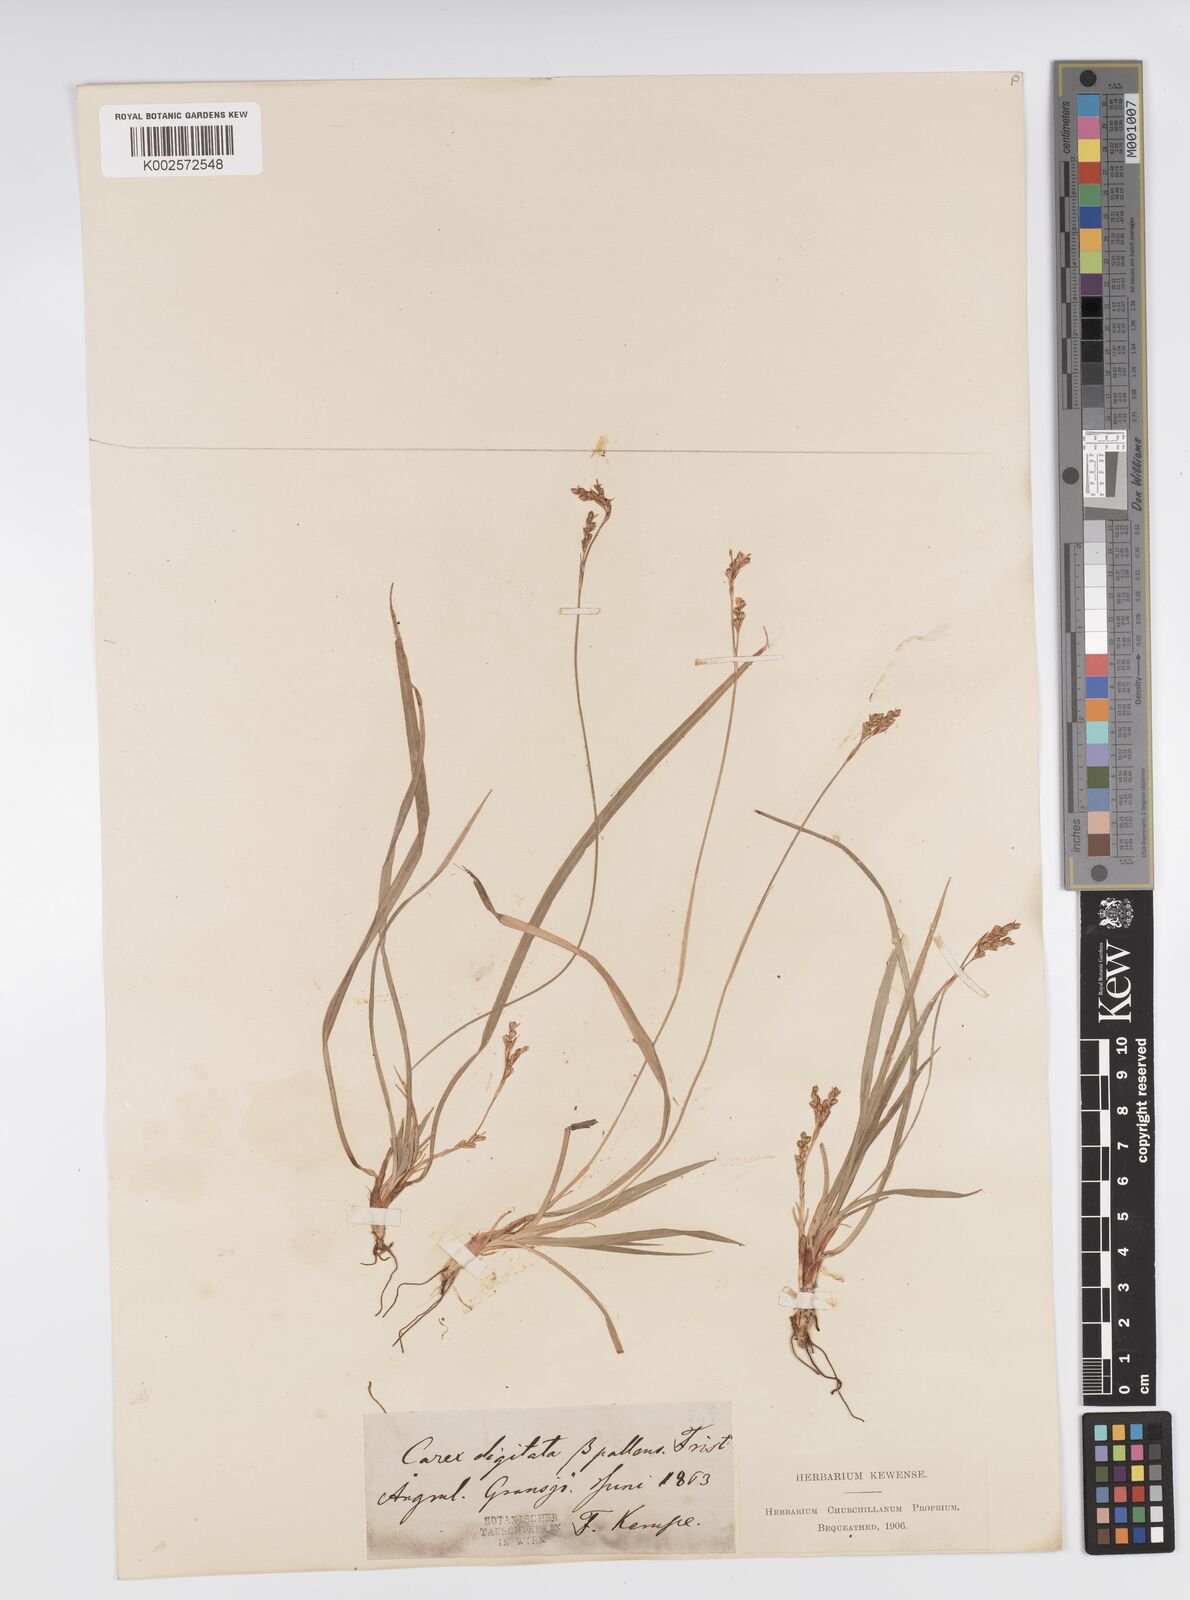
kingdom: Plantae
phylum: Tracheophyta
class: Liliopsida
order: Poales
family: Cyperaceae
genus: Carex
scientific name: Carex digitata
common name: Fingered sedge
